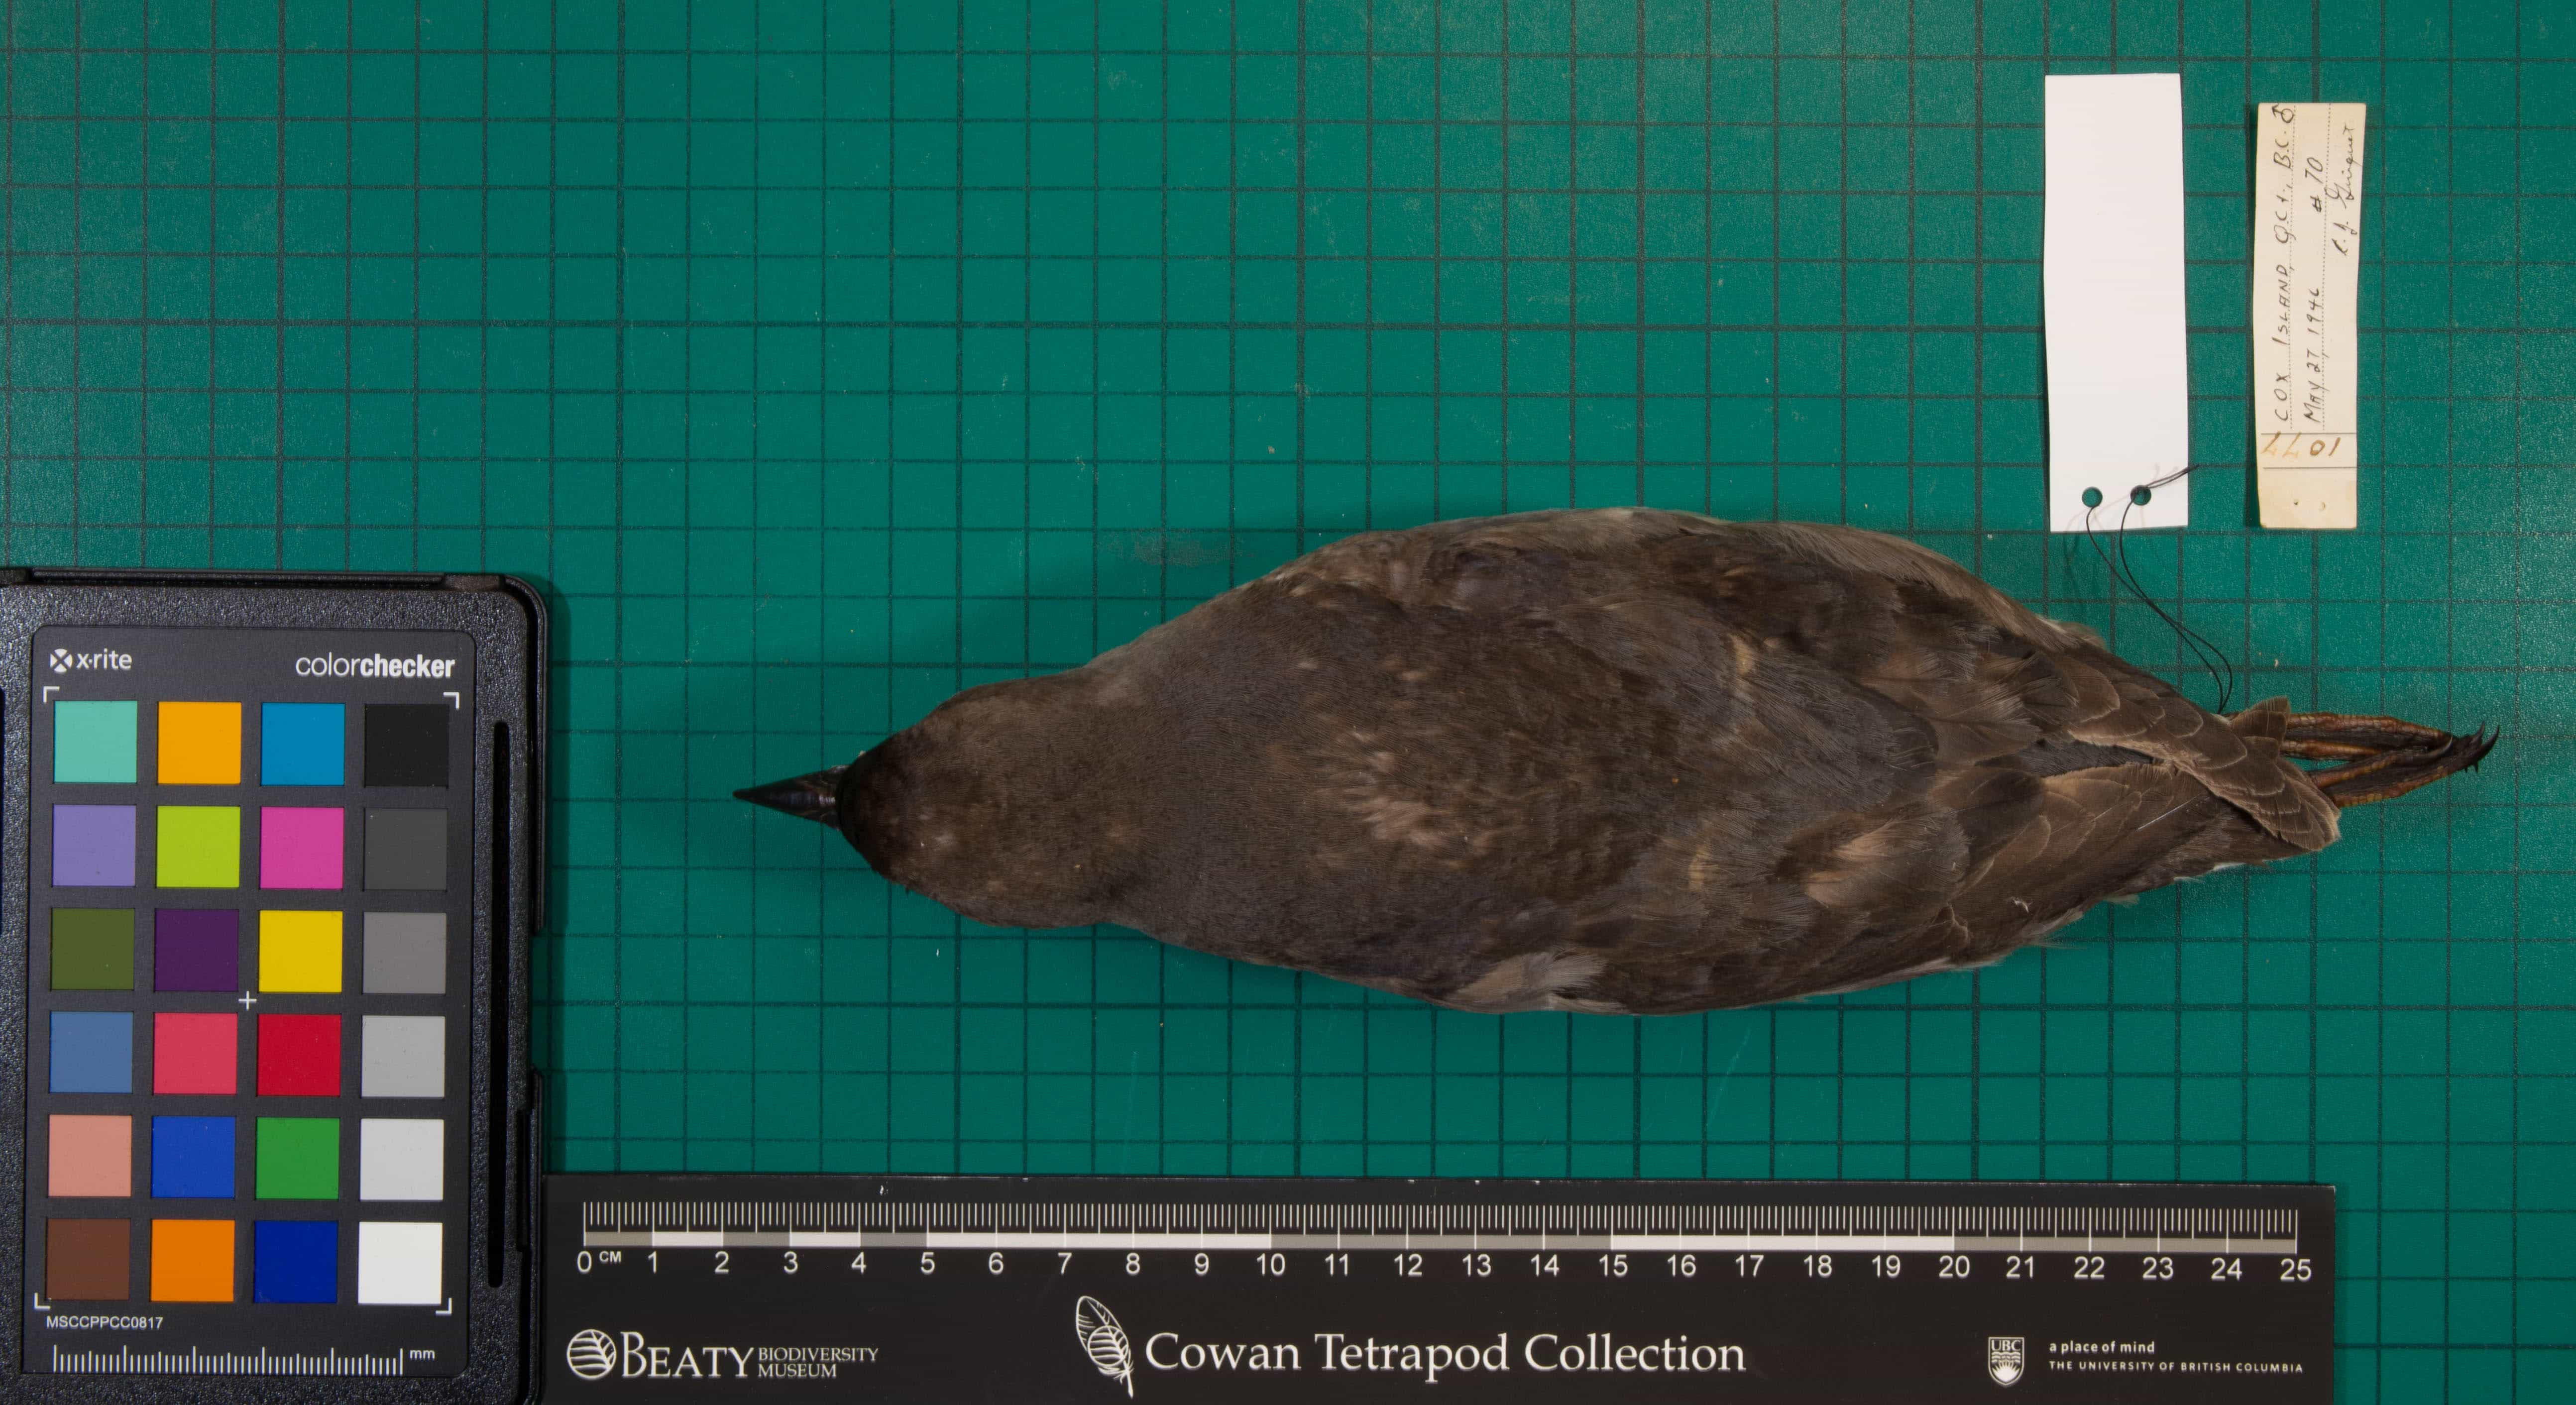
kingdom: Animalia
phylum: Chordata
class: Aves
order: Charadriiformes
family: Alcidae
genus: Ptychoramphus
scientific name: Ptychoramphus aleuticus
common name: Cassin's Auklet
